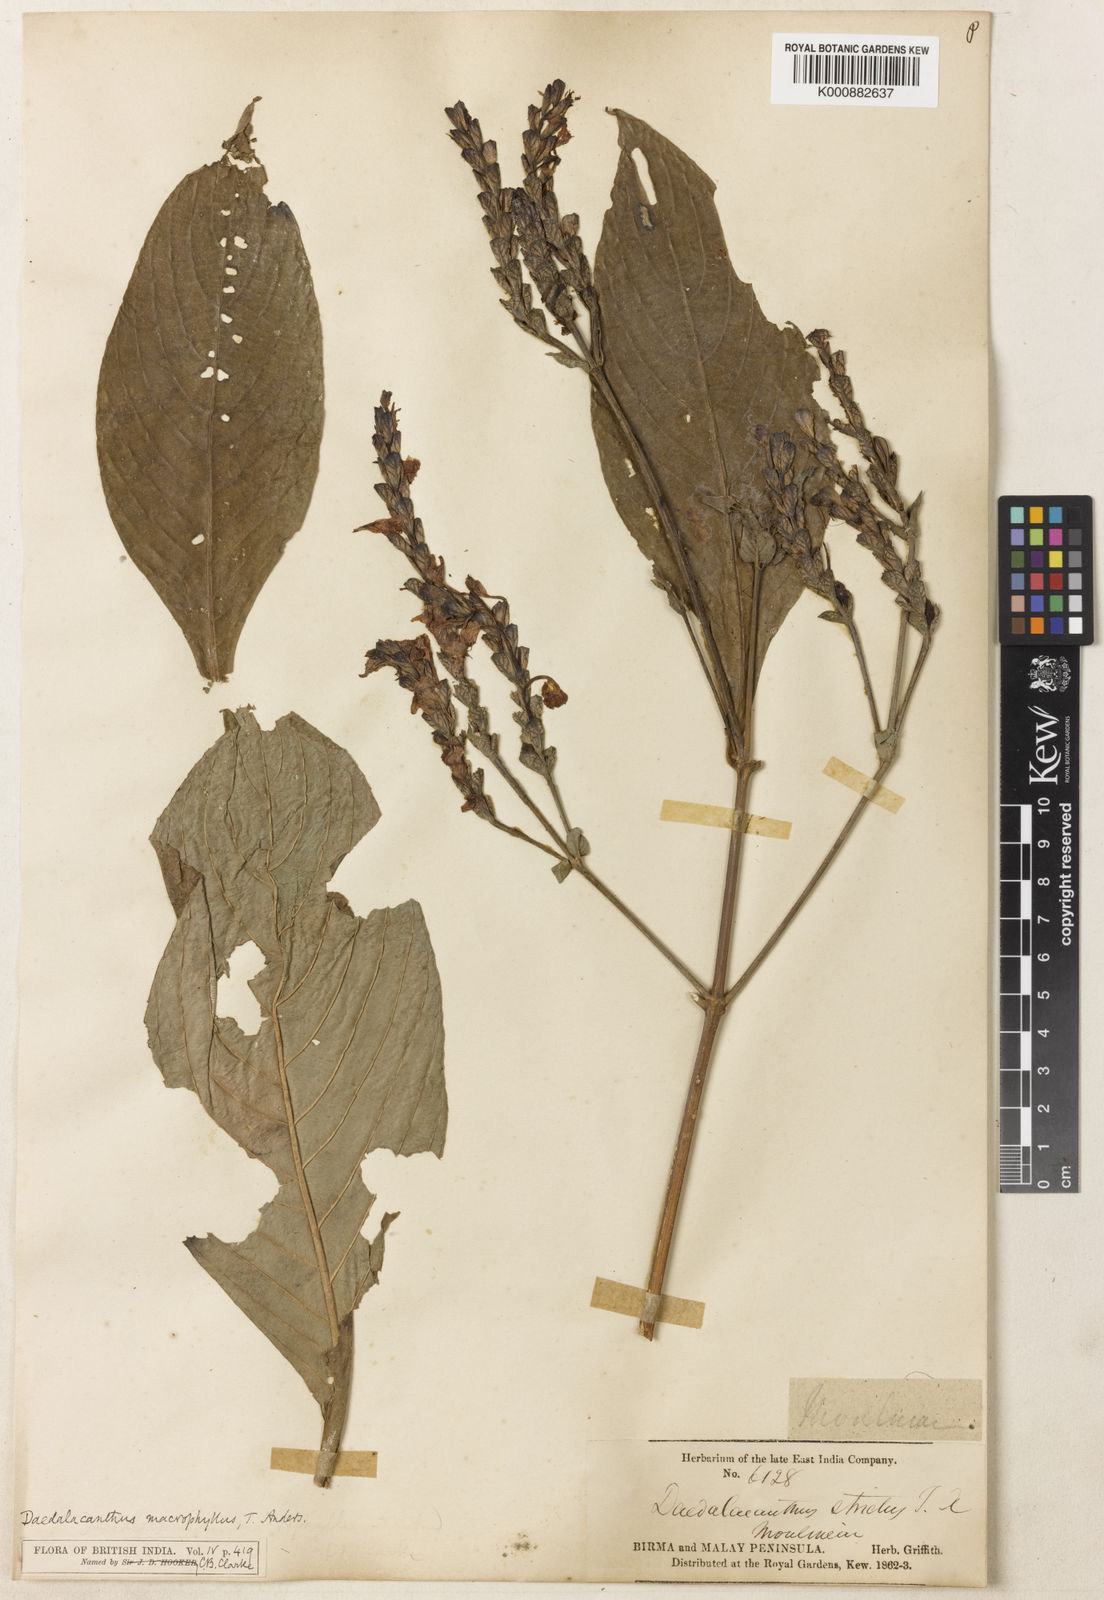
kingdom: Plantae
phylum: Tracheophyta
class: Magnoliopsida
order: Lamiales
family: Acanthaceae
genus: Pseuderanthemum
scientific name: Pseuderanthemum macrophyllum
